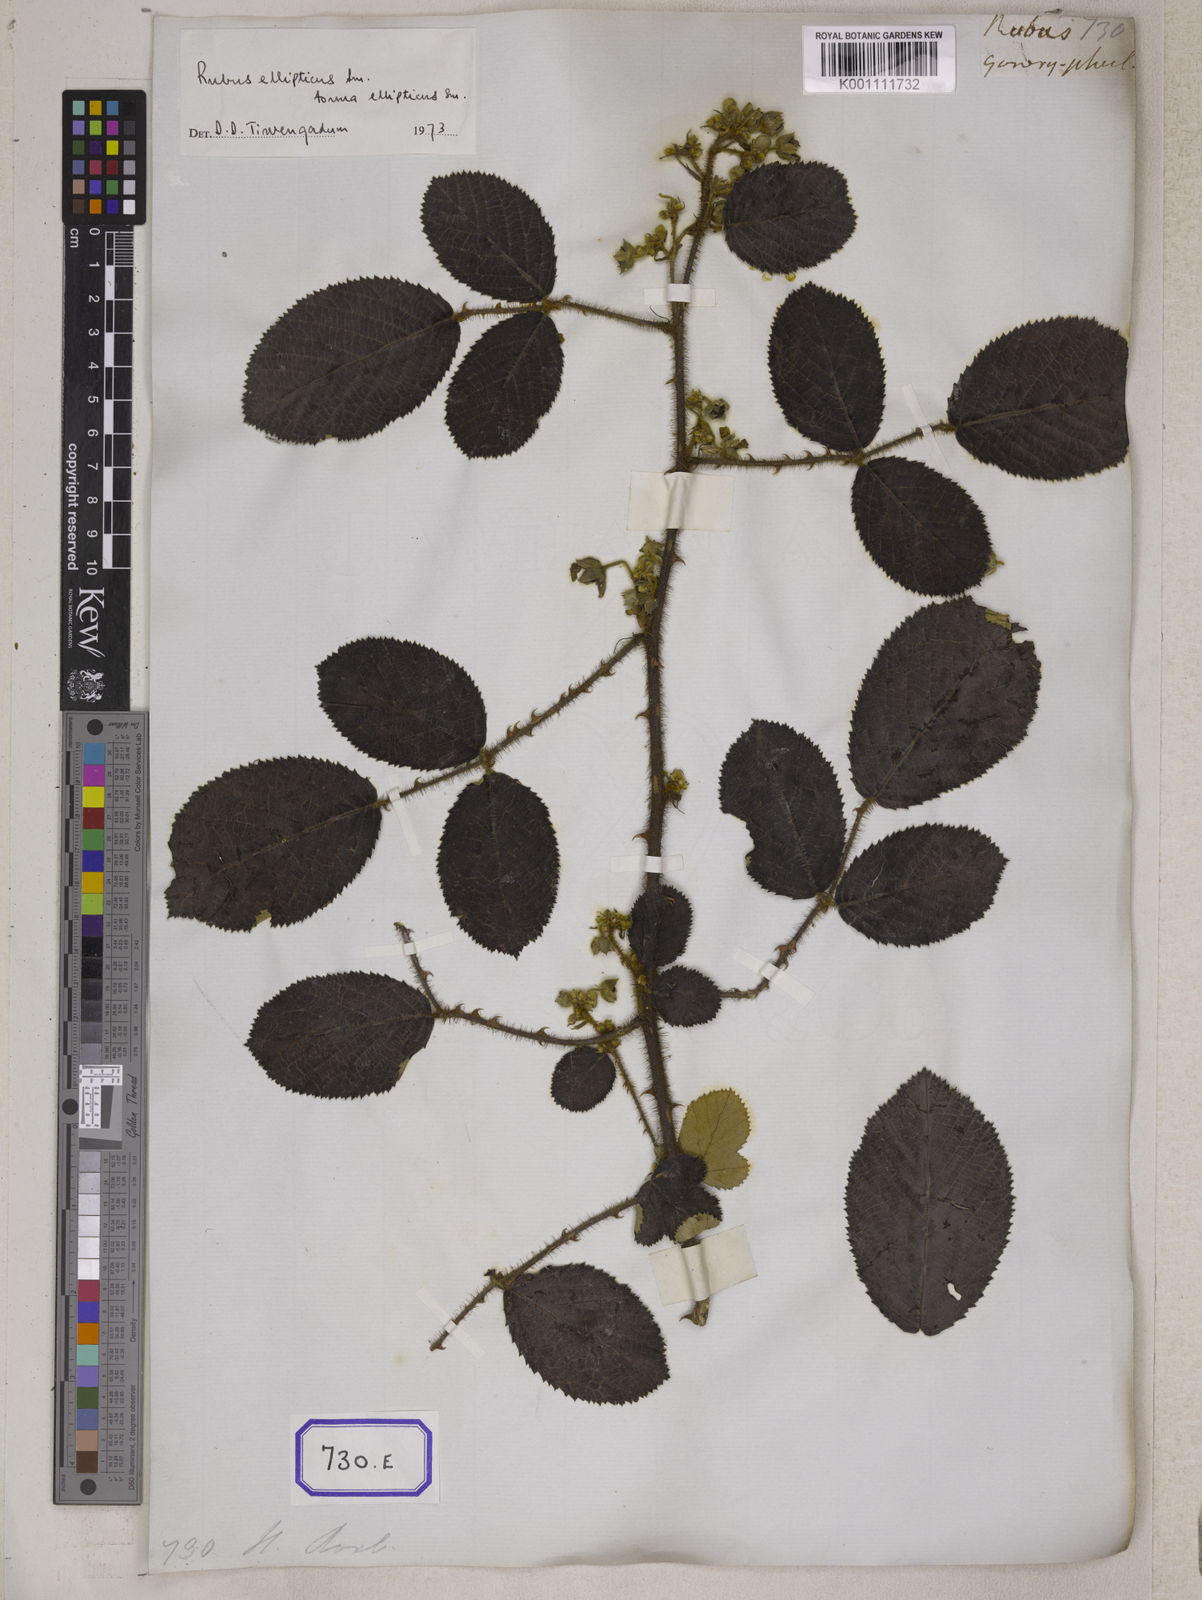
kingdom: Plantae
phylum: Tracheophyta
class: Magnoliopsida
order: Rosales
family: Rosaceae
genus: Rubus
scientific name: Rubus
